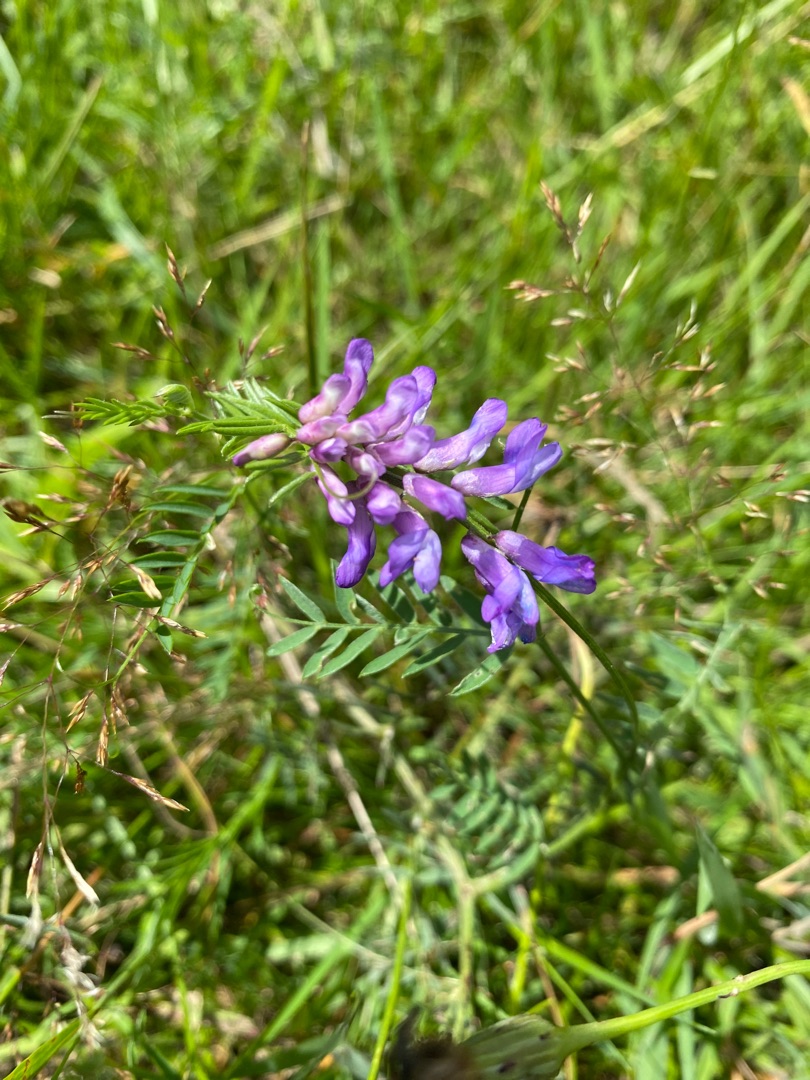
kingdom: Plantae
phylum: Tracheophyta
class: Magnoliopsida
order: Fabales
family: Fabaceae
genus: Vicia
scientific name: Vicia cracca
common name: Muse-vikke
